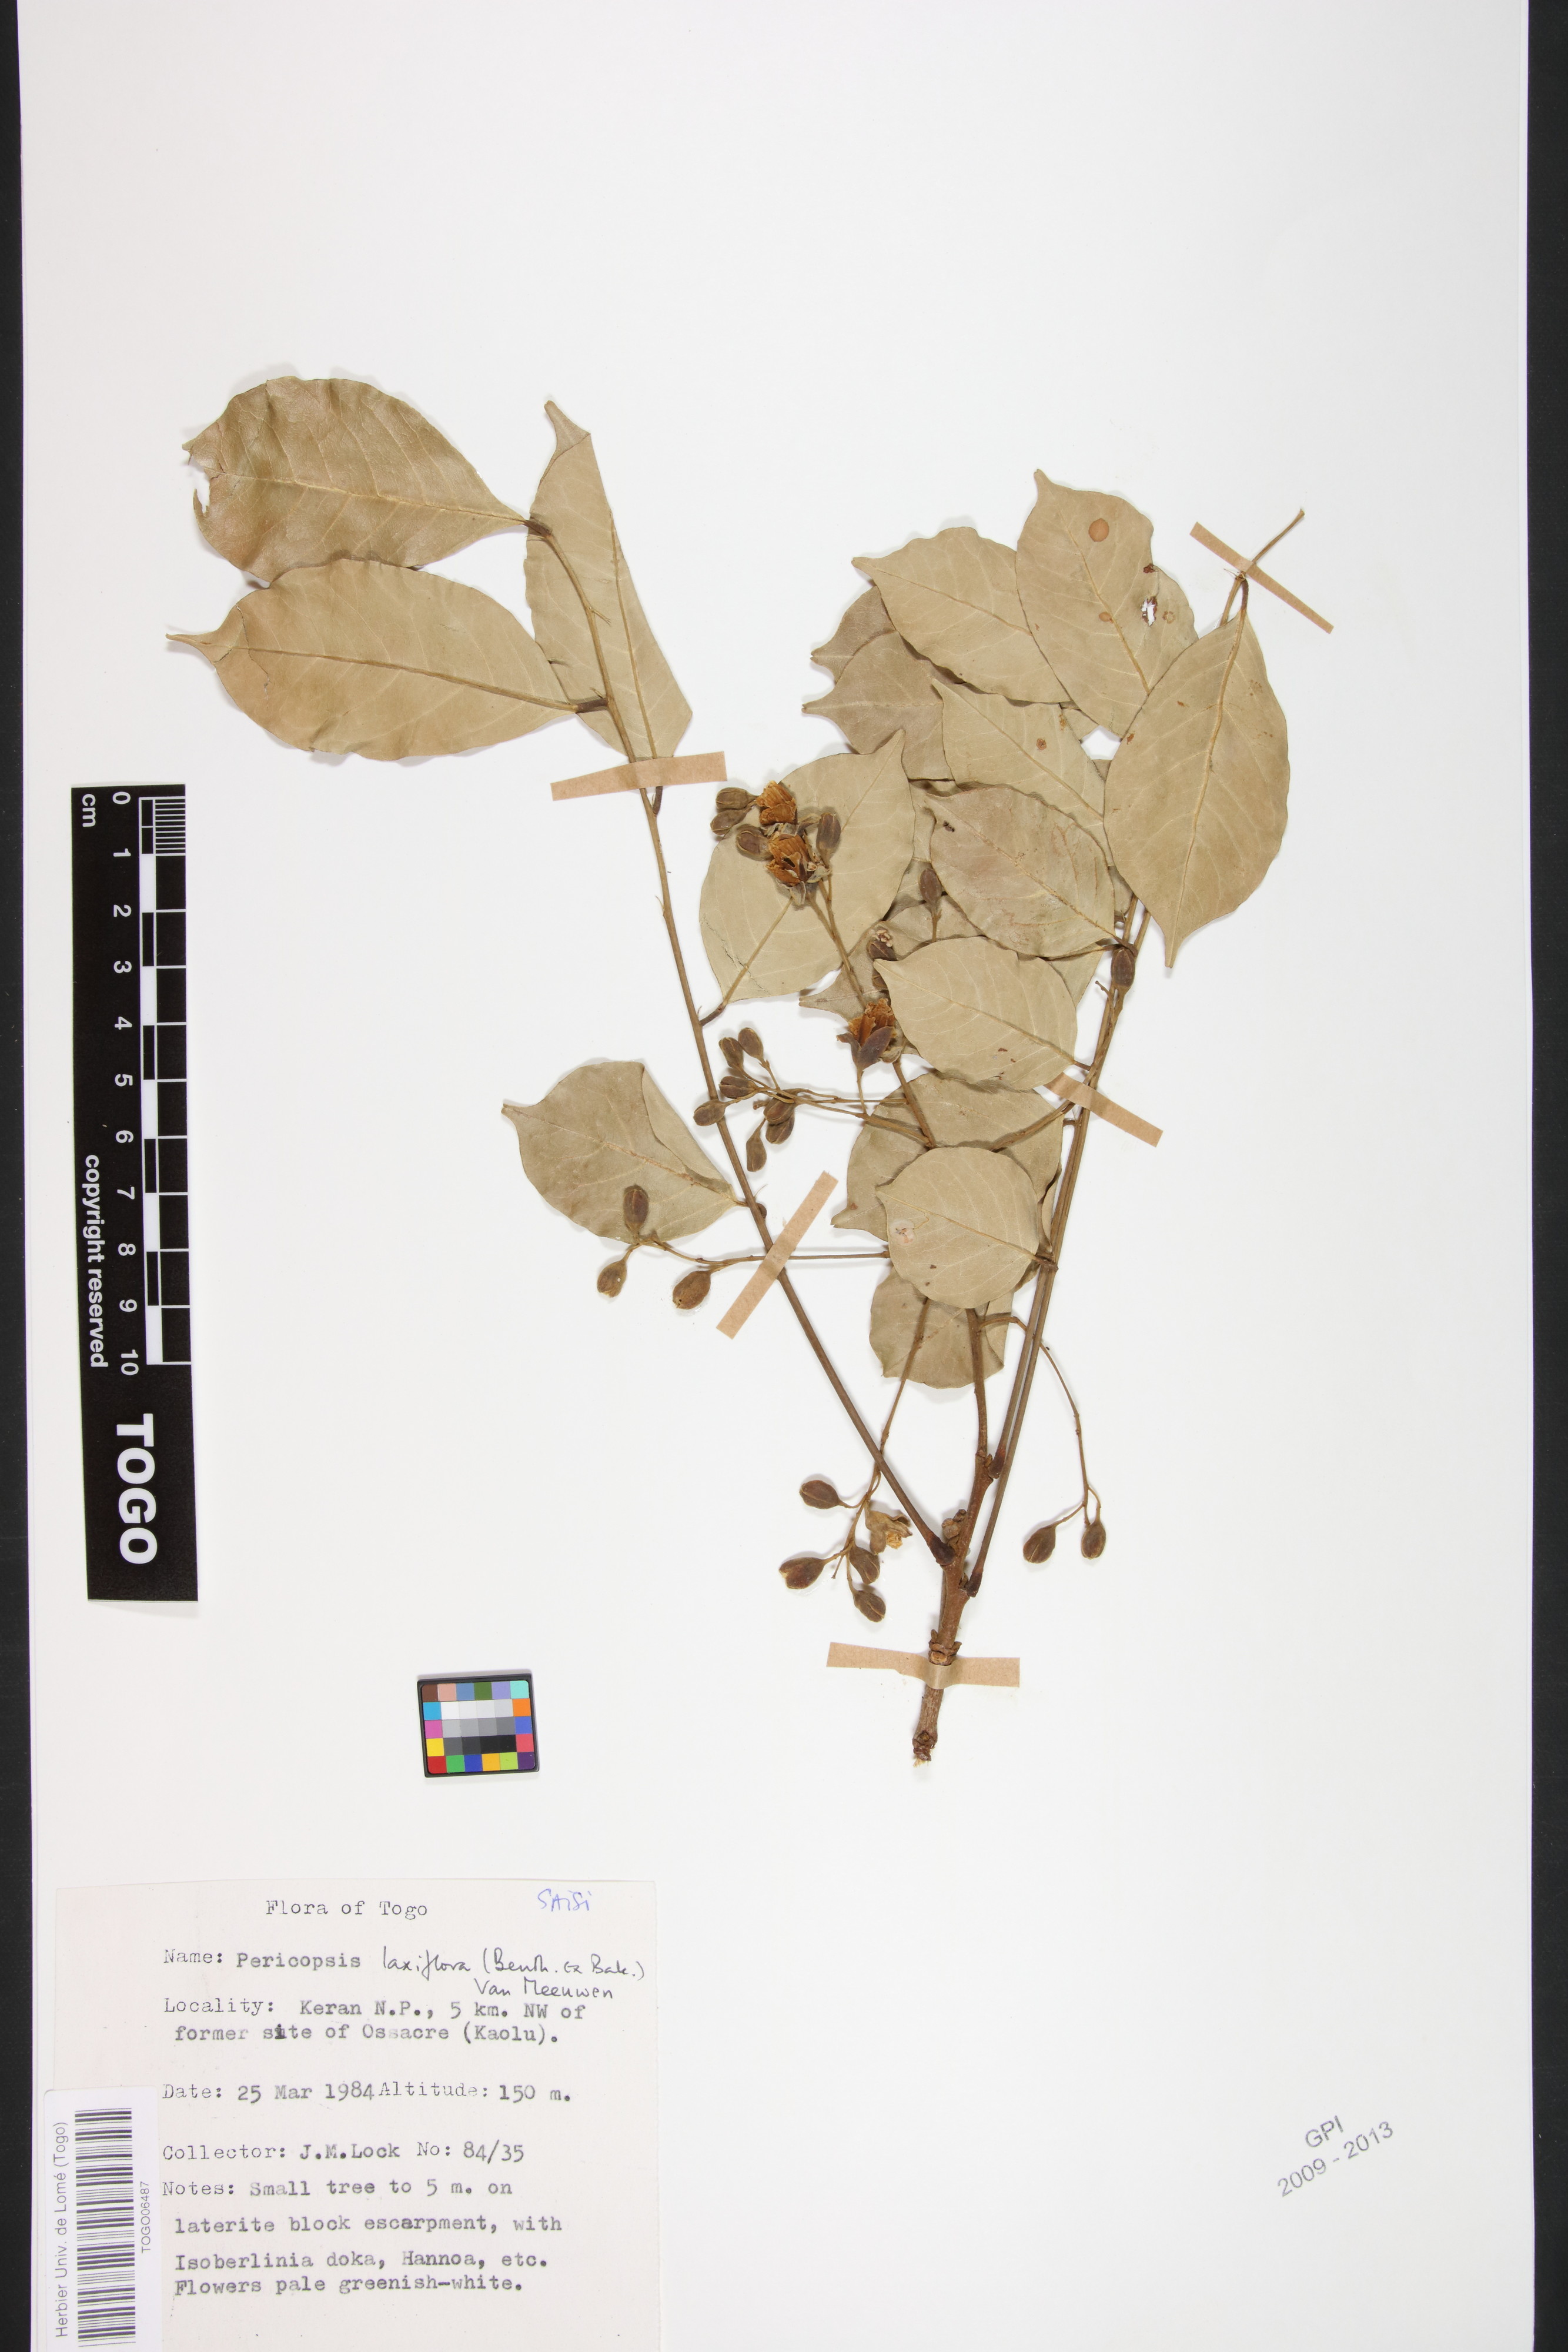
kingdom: Plantae
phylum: Tracheophyta
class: Magnoliopsida
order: Fabales
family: Fabaceae
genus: Pericopsis
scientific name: Pericopsis laxiflora
